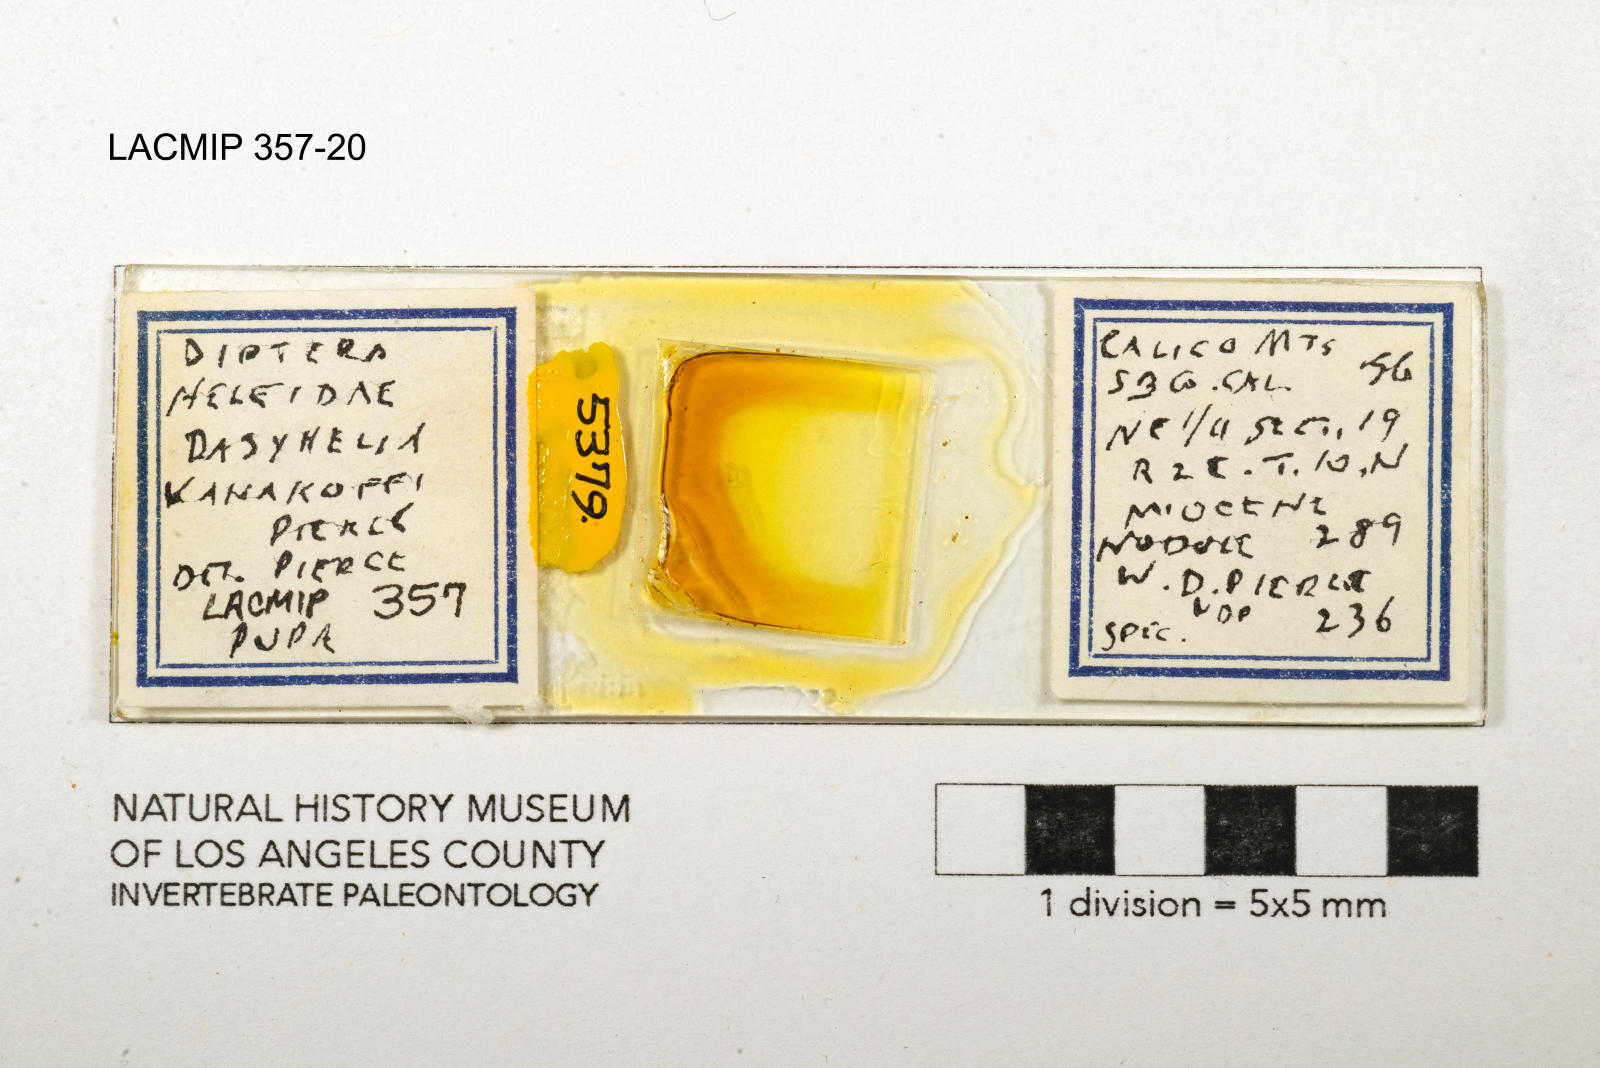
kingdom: Animalia
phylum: Arthropoda
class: Insecta
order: Diptera
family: Ceratopogonidae
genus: Dasyhelea
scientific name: Dasyhelea kanakoffi
